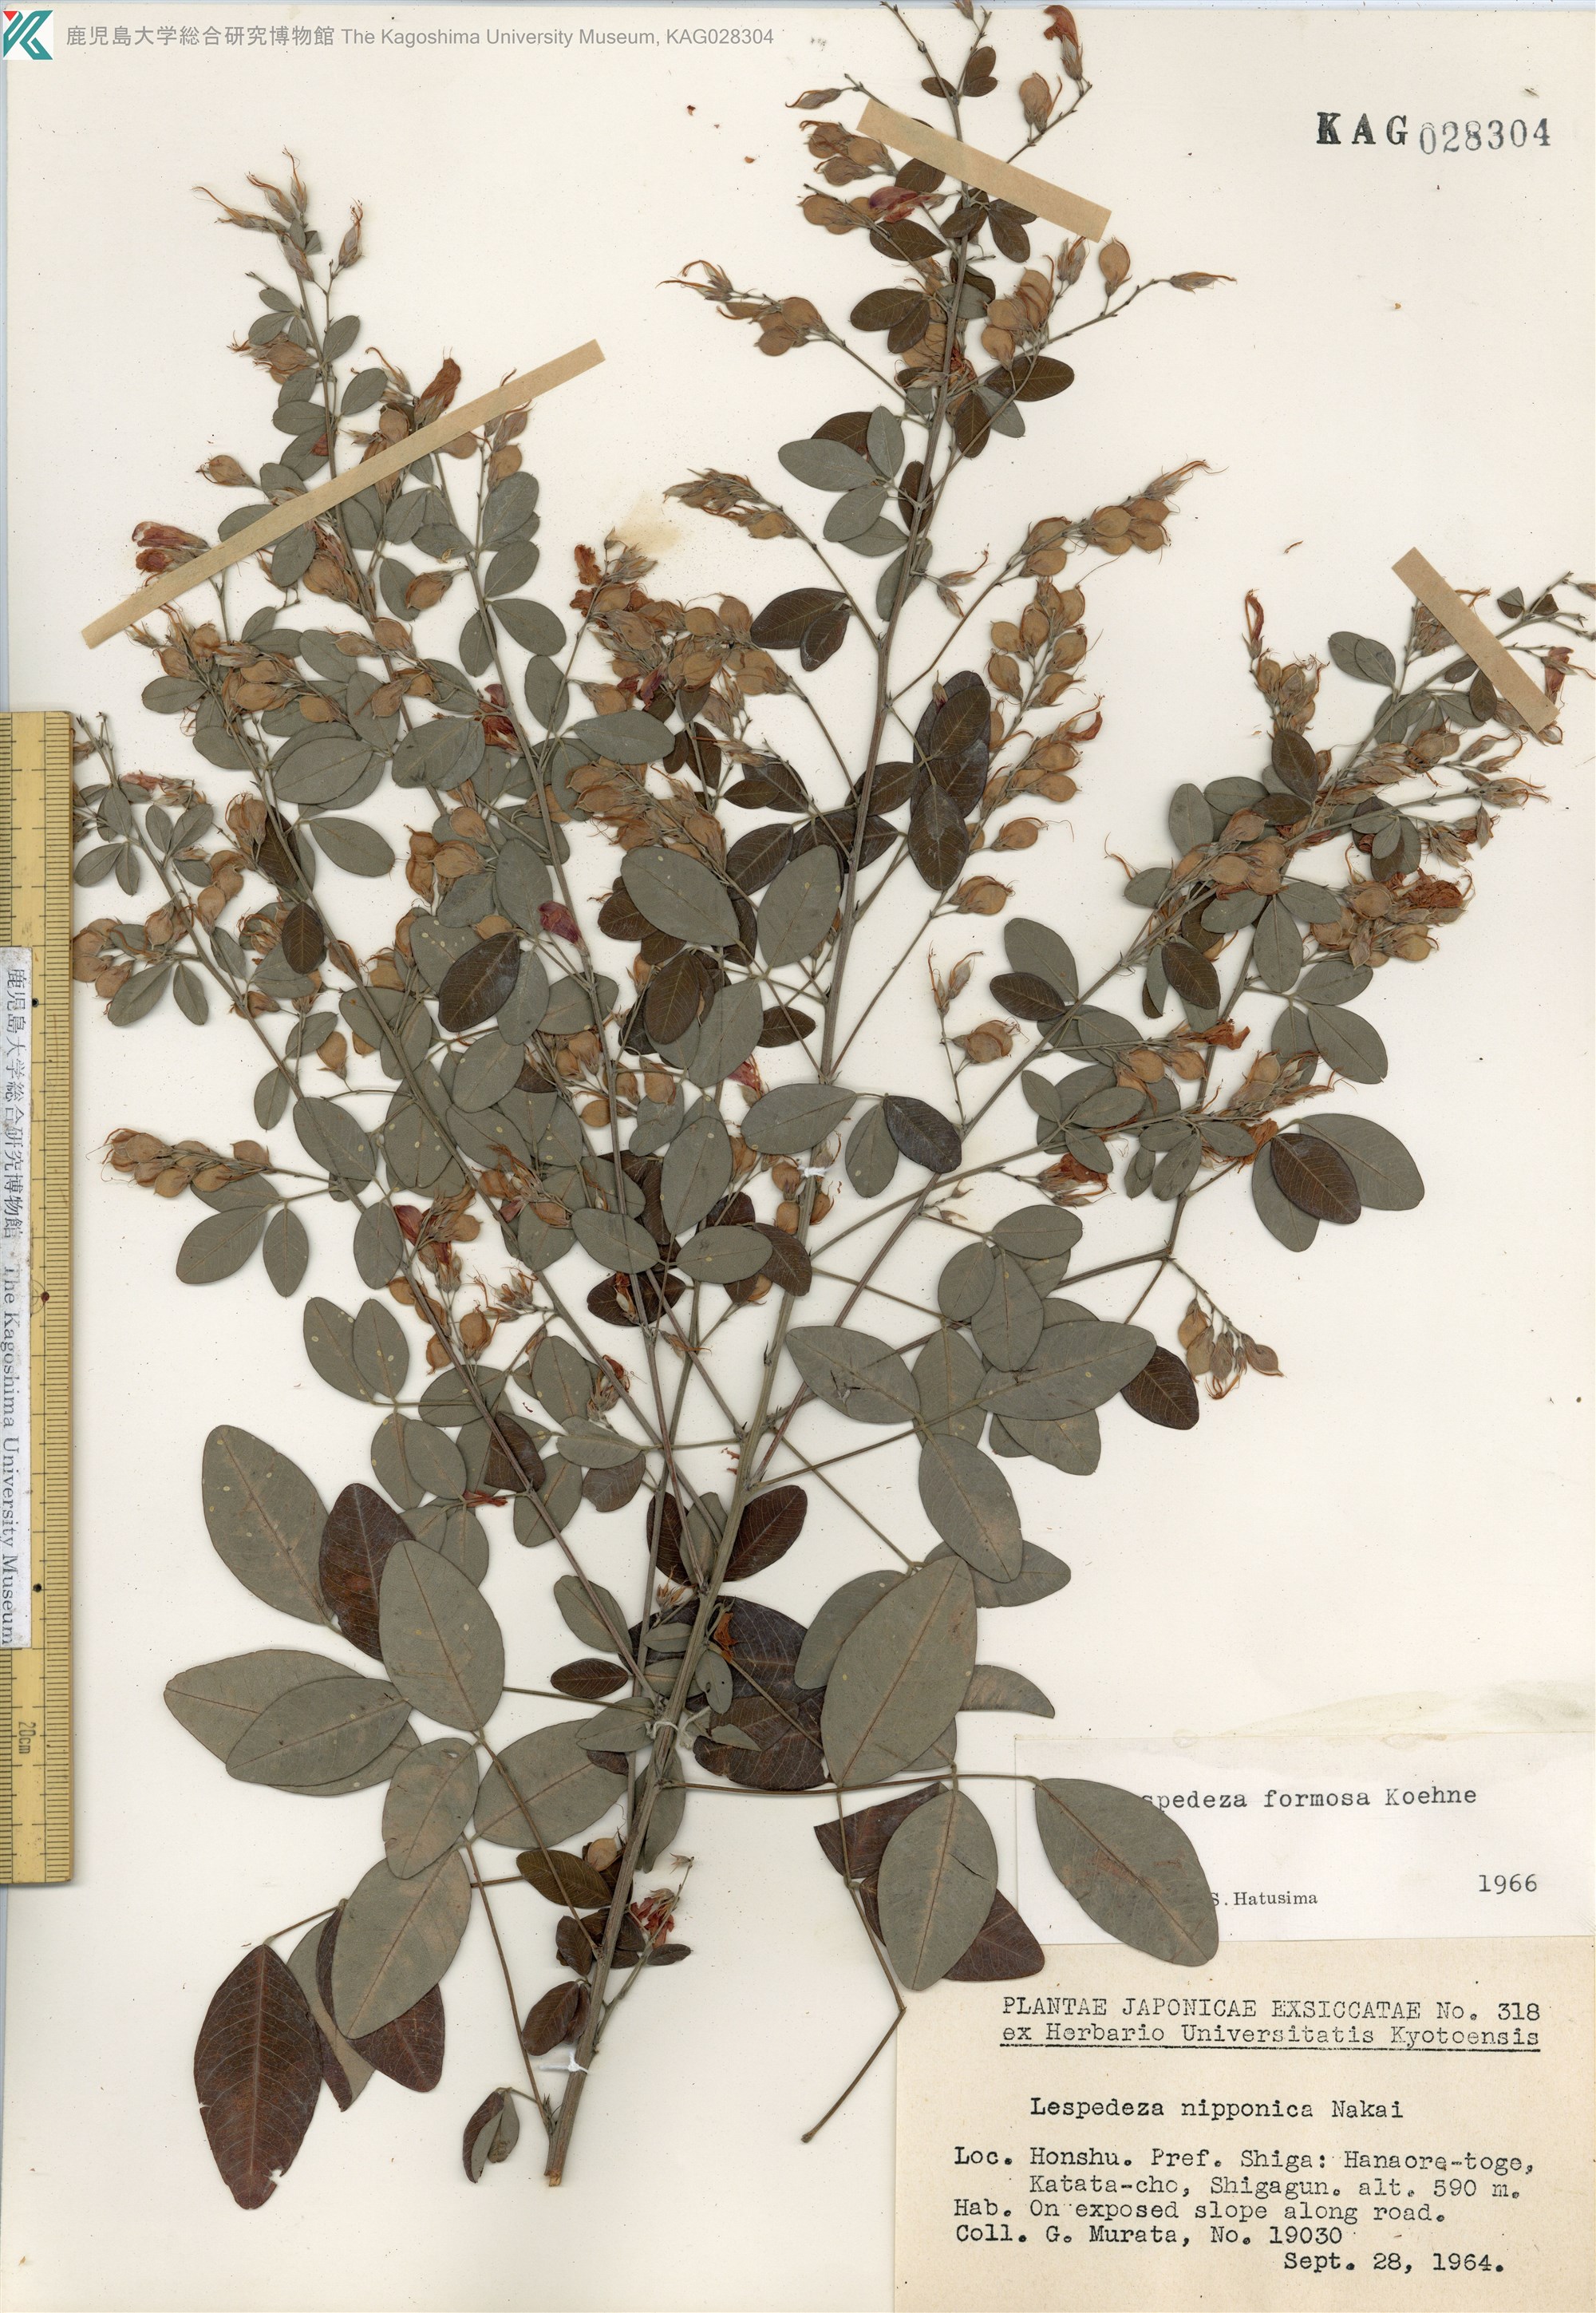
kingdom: Plantae
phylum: Tracheophyta
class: Magnoliopsida
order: Fabales
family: Fabaceae
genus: Lespedeza
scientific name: Lespedeza thunbergii
